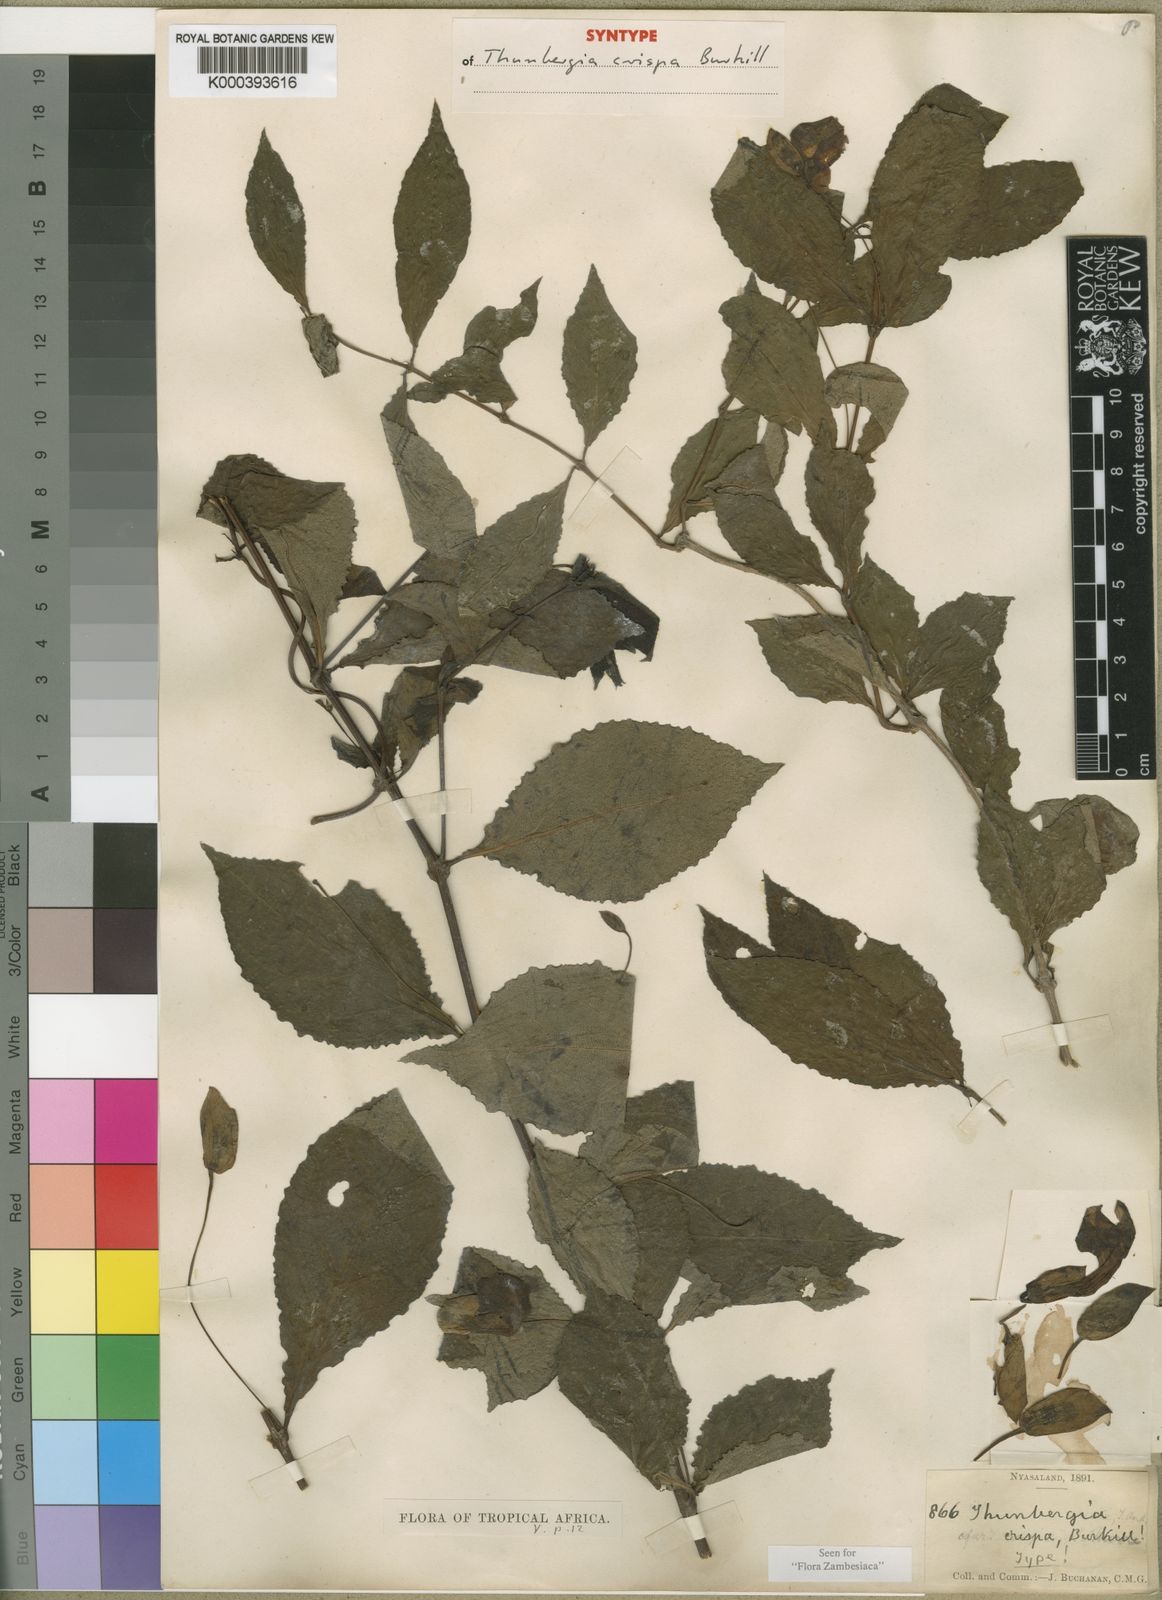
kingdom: Plantae
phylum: Tracheophyta
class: Magnoliopsida
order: Lamiales
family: Acanthaceae
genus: Thunbergia
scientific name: Thunbergia crispa
